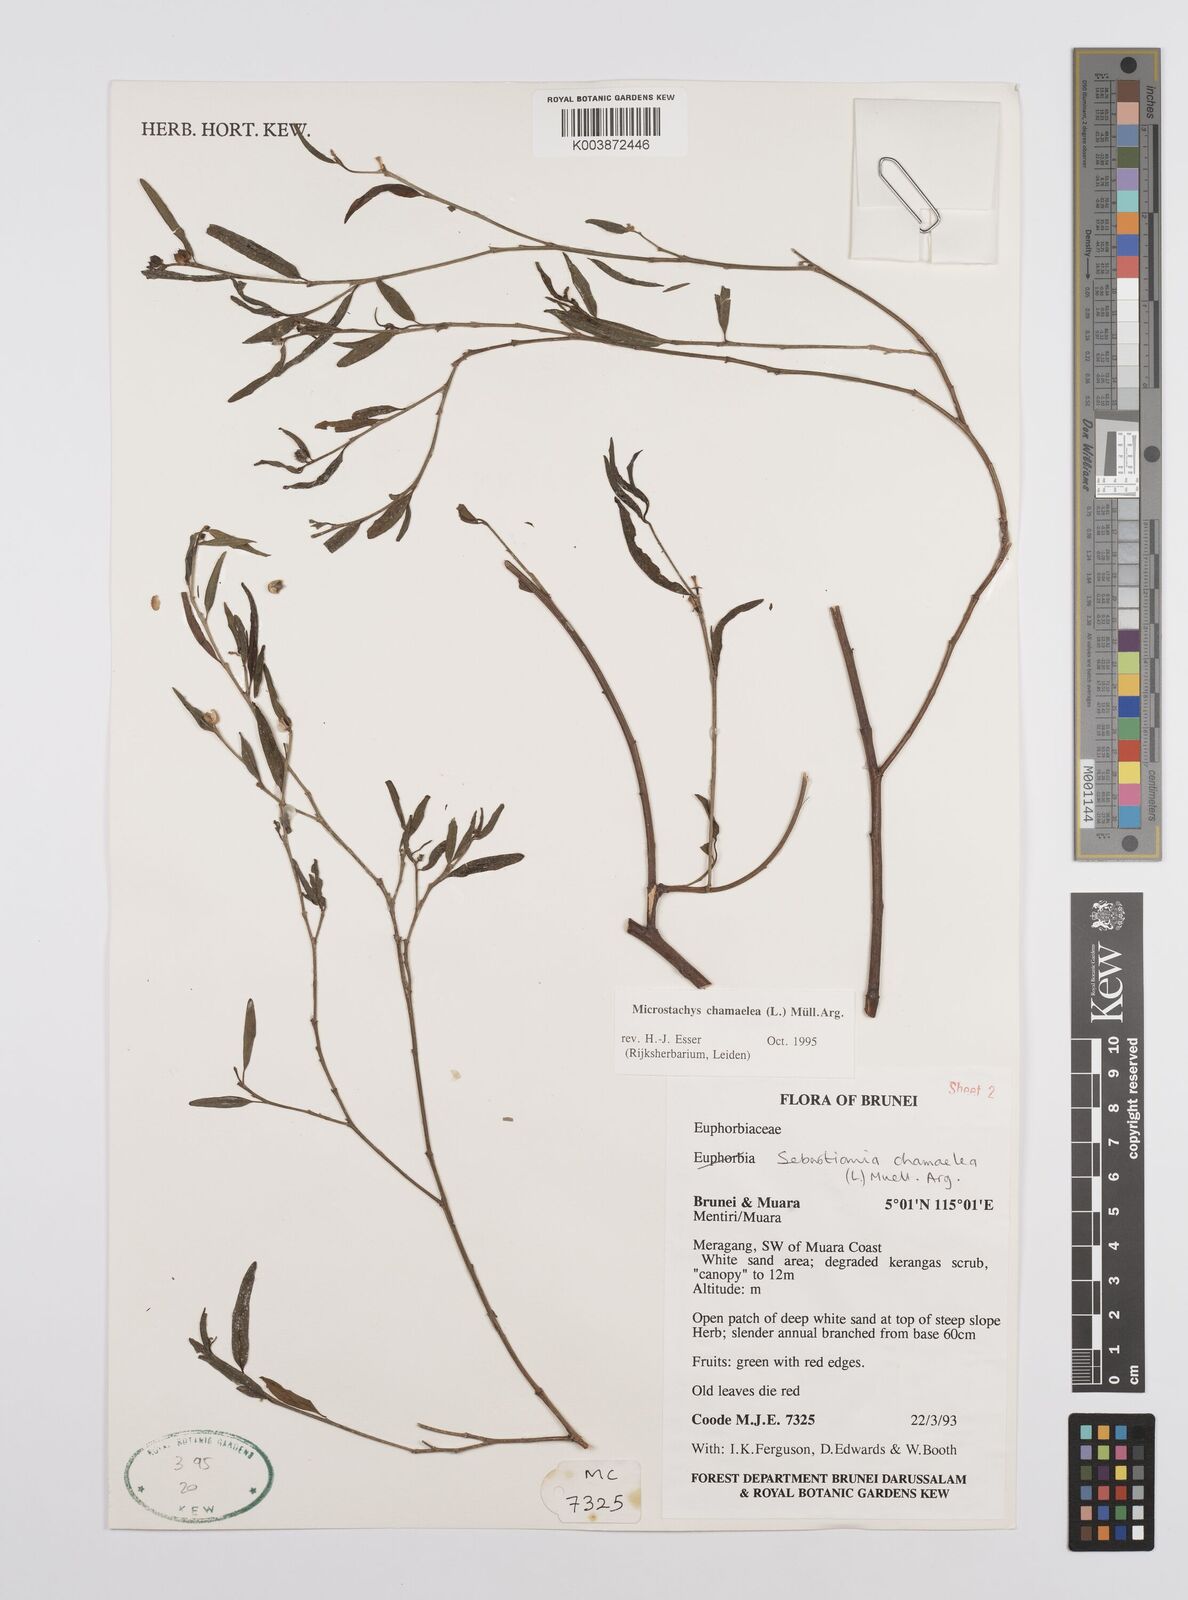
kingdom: Plantae
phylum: Tracheophyta
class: Magnoliopsida
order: Malpighiales
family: Euphorbiaceae
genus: Microstachys
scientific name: Microstachys chamaelea
